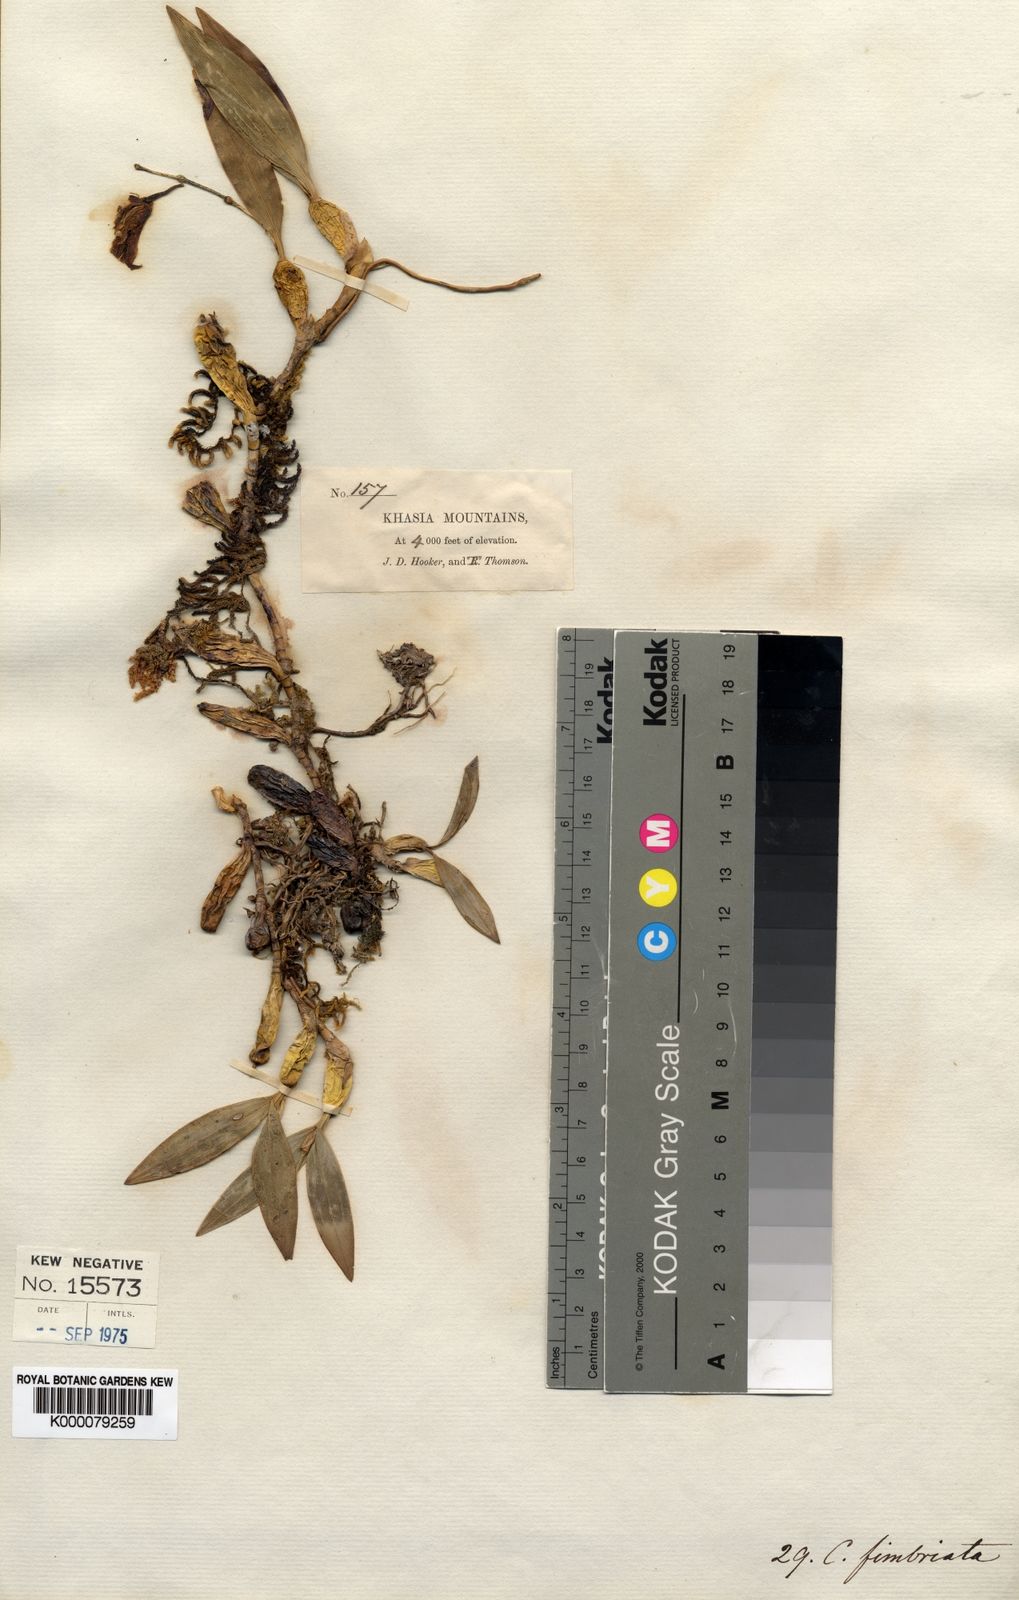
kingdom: Plantae
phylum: Tracheophyta
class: Liliopsida
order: Asparagales
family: Orchidaceae
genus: Coelogyne
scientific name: Coelogyne fimbriata
